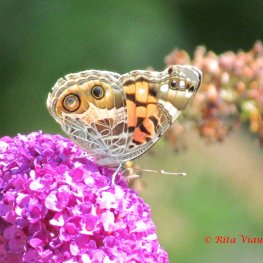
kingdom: Animalia
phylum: Arthropoda
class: Insecta
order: Lepidoptera
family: Nymphalidae
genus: Vanessa
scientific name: Vanessa virginiensis
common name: American Lady
